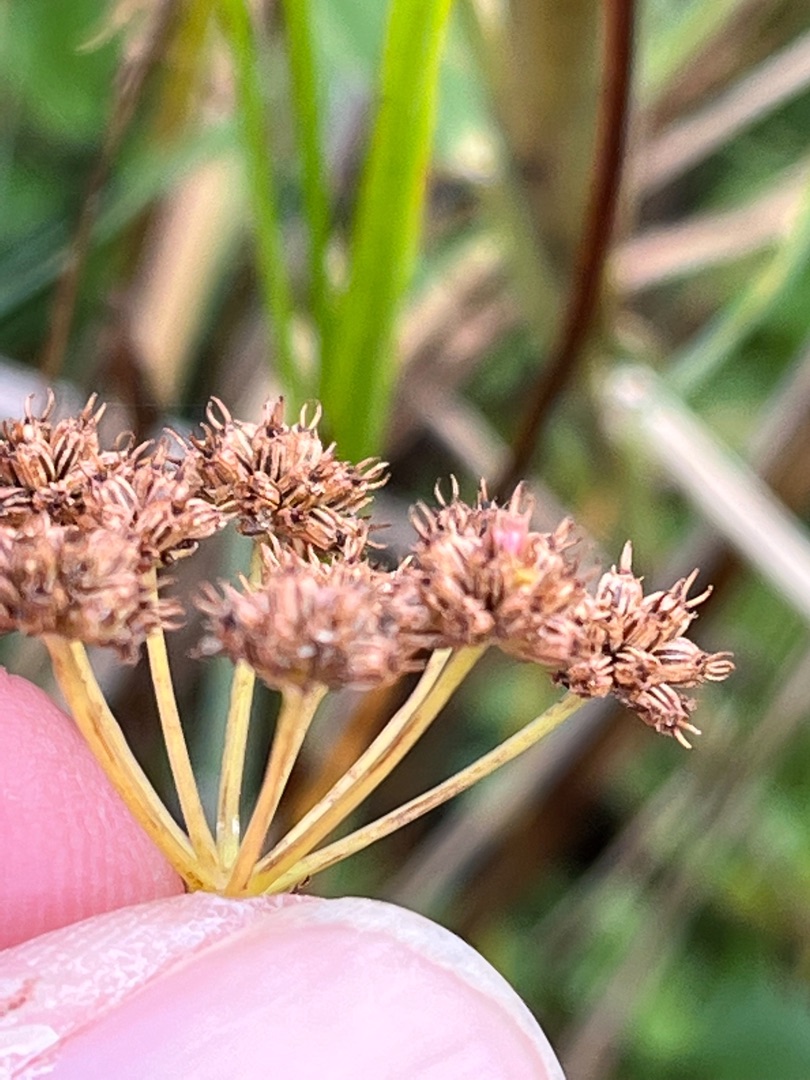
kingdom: Plantae
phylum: Tracheophyta
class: Magnoliopsida
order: Apiales
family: Apiaceae
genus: Oenanthe
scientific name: Oenanthe lachenalii
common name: Eng-klaseskærm
